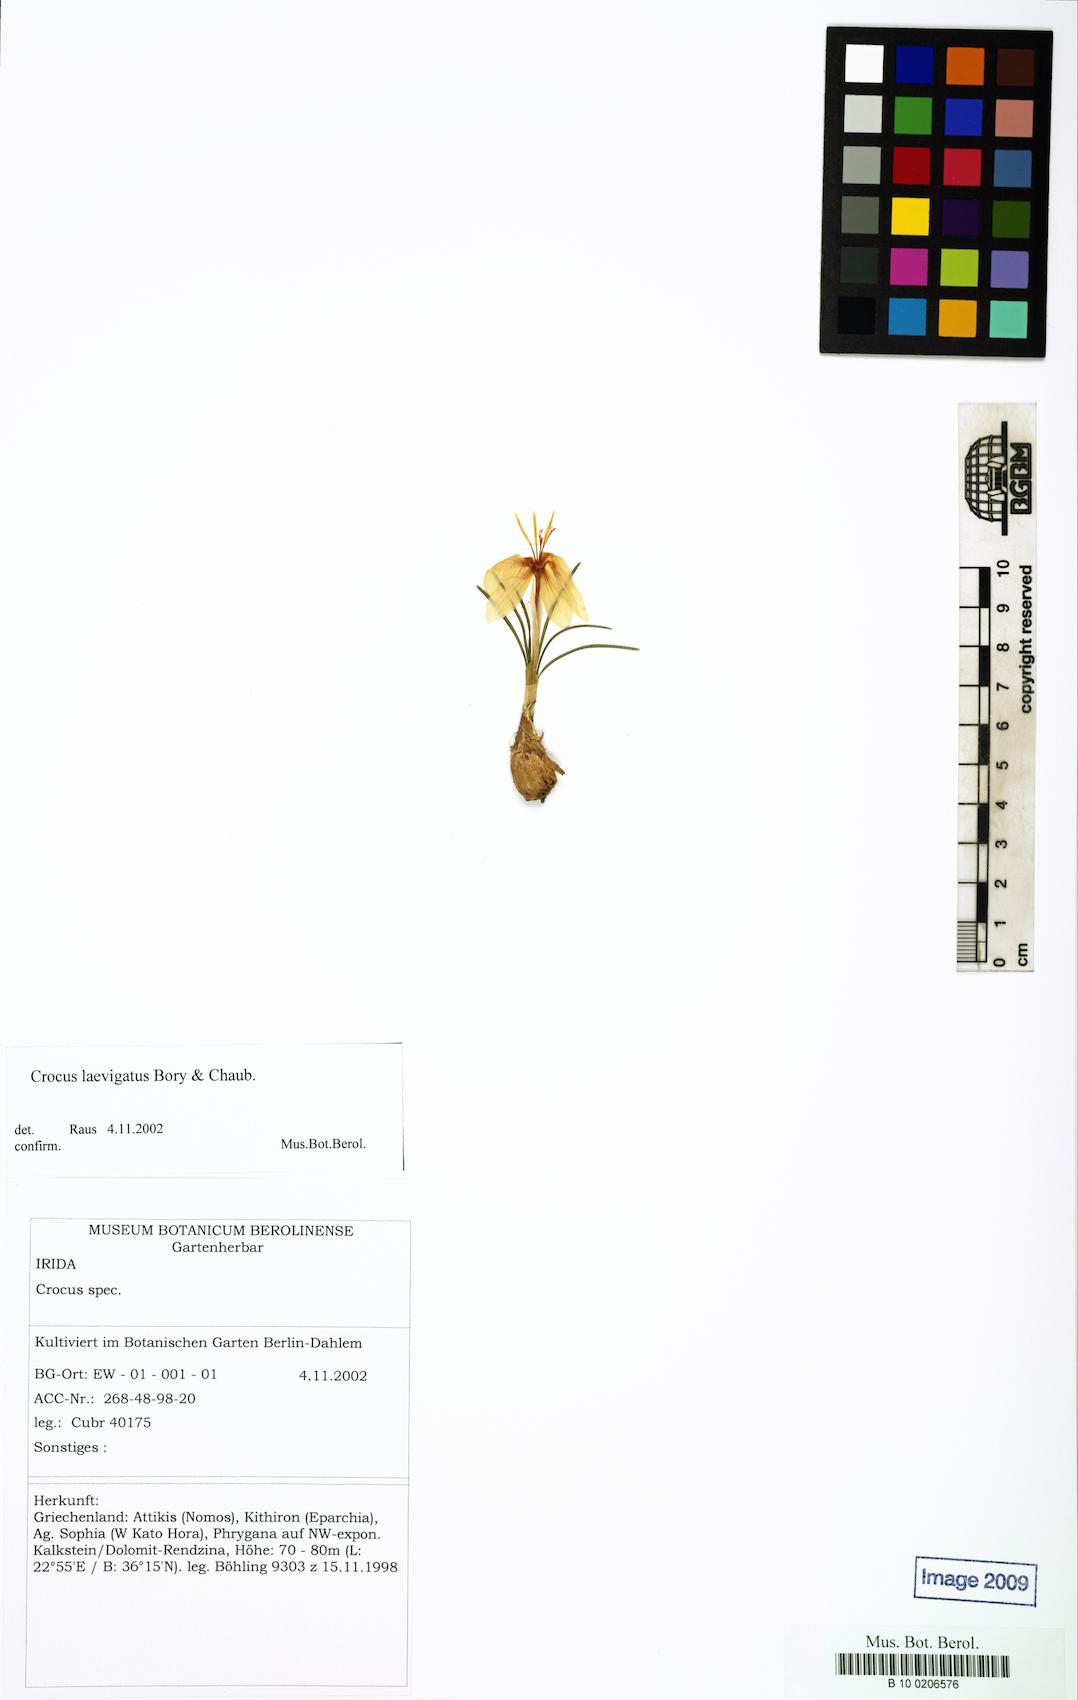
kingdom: Plantae
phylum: Tracheophyta
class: Liliopsida
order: Asparagales
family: Iridaceae
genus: Crocus
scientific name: Crocus laevigatus
